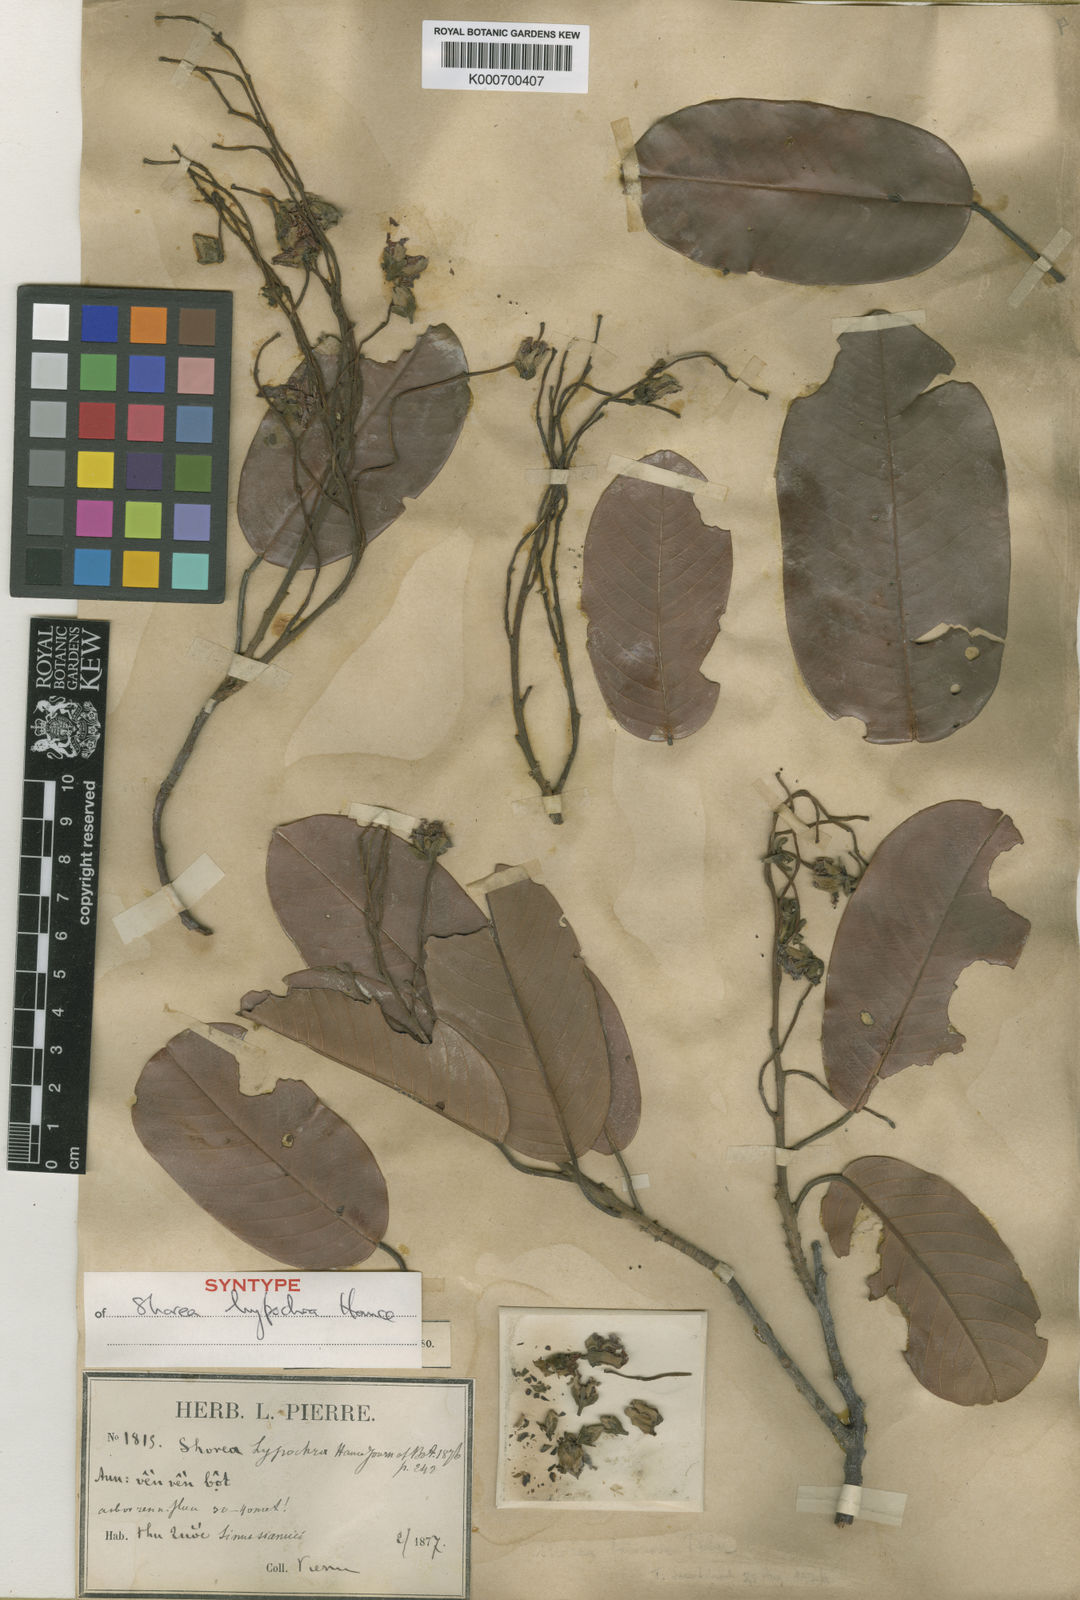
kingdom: Plantae
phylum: Tracheophyta
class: Magnoliopsida
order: Malvales
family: Dipterocarpaceae
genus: Anthoshorea
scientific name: Anthoshorea hypochra
